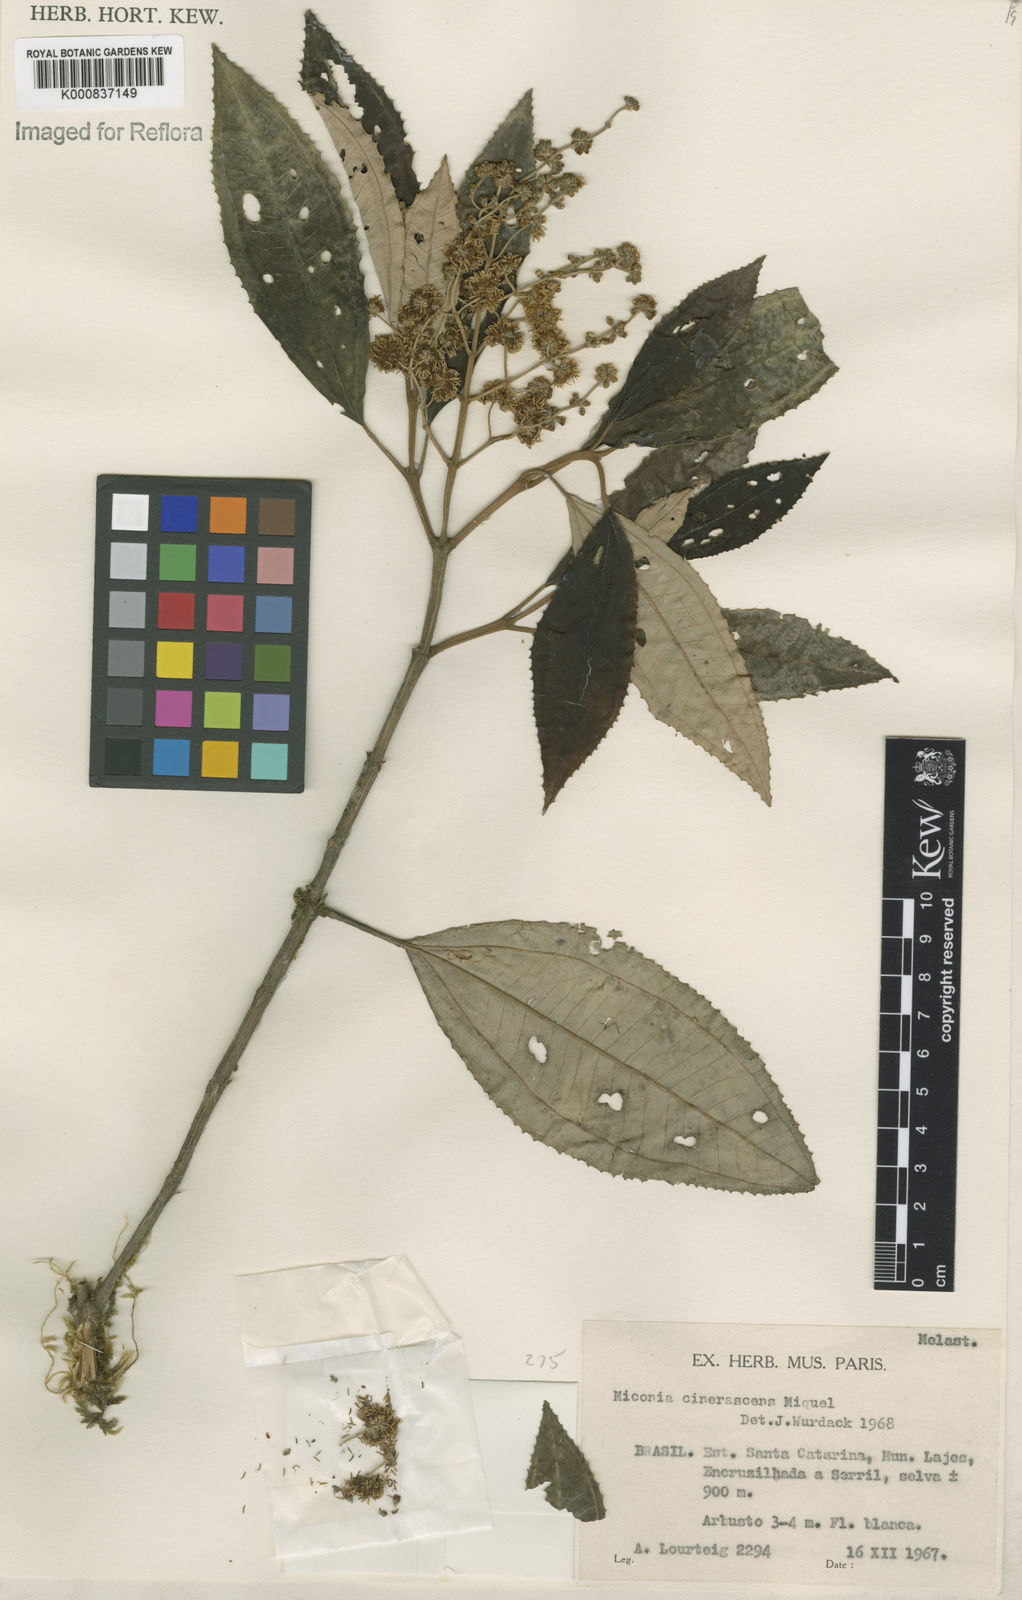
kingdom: Plantae
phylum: Tracheophyta
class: Magnoliopsida
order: Myrtales
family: Melastomataceae
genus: Miconia
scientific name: Miconia cinerascens
